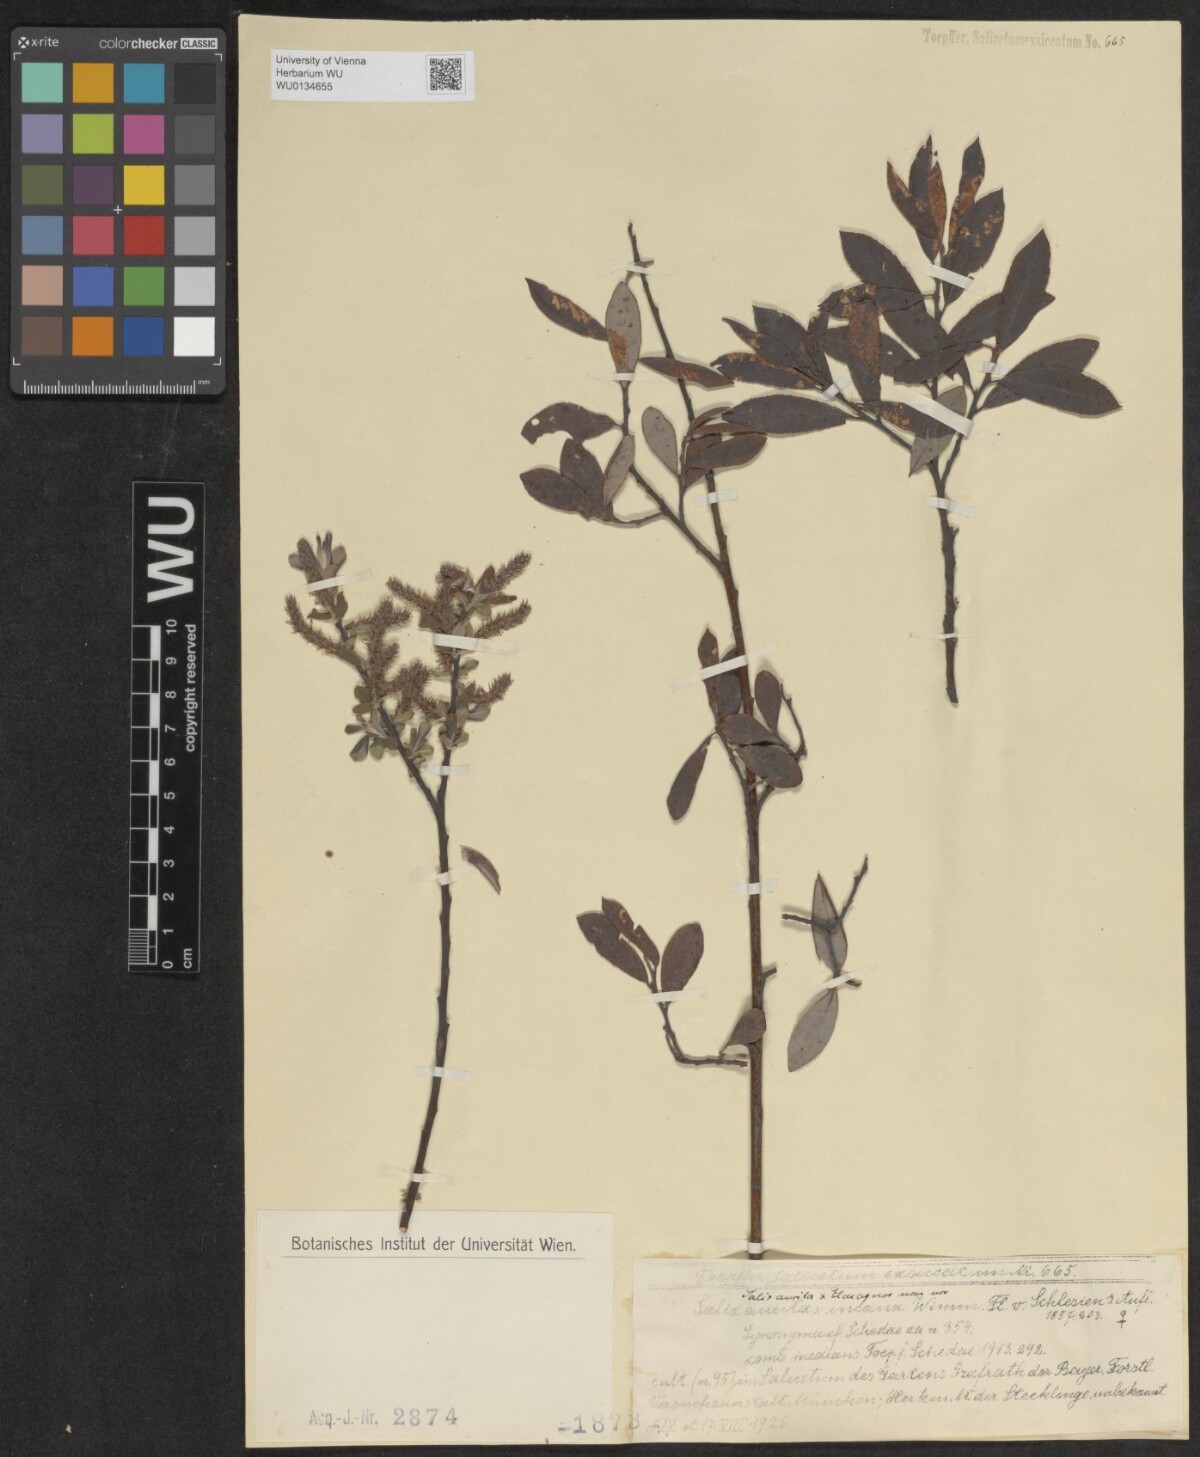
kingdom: Plantae
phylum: Tracheophyta
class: Magnoliopsida
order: Malpighiales
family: Salicaceae
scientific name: Salicaceae
